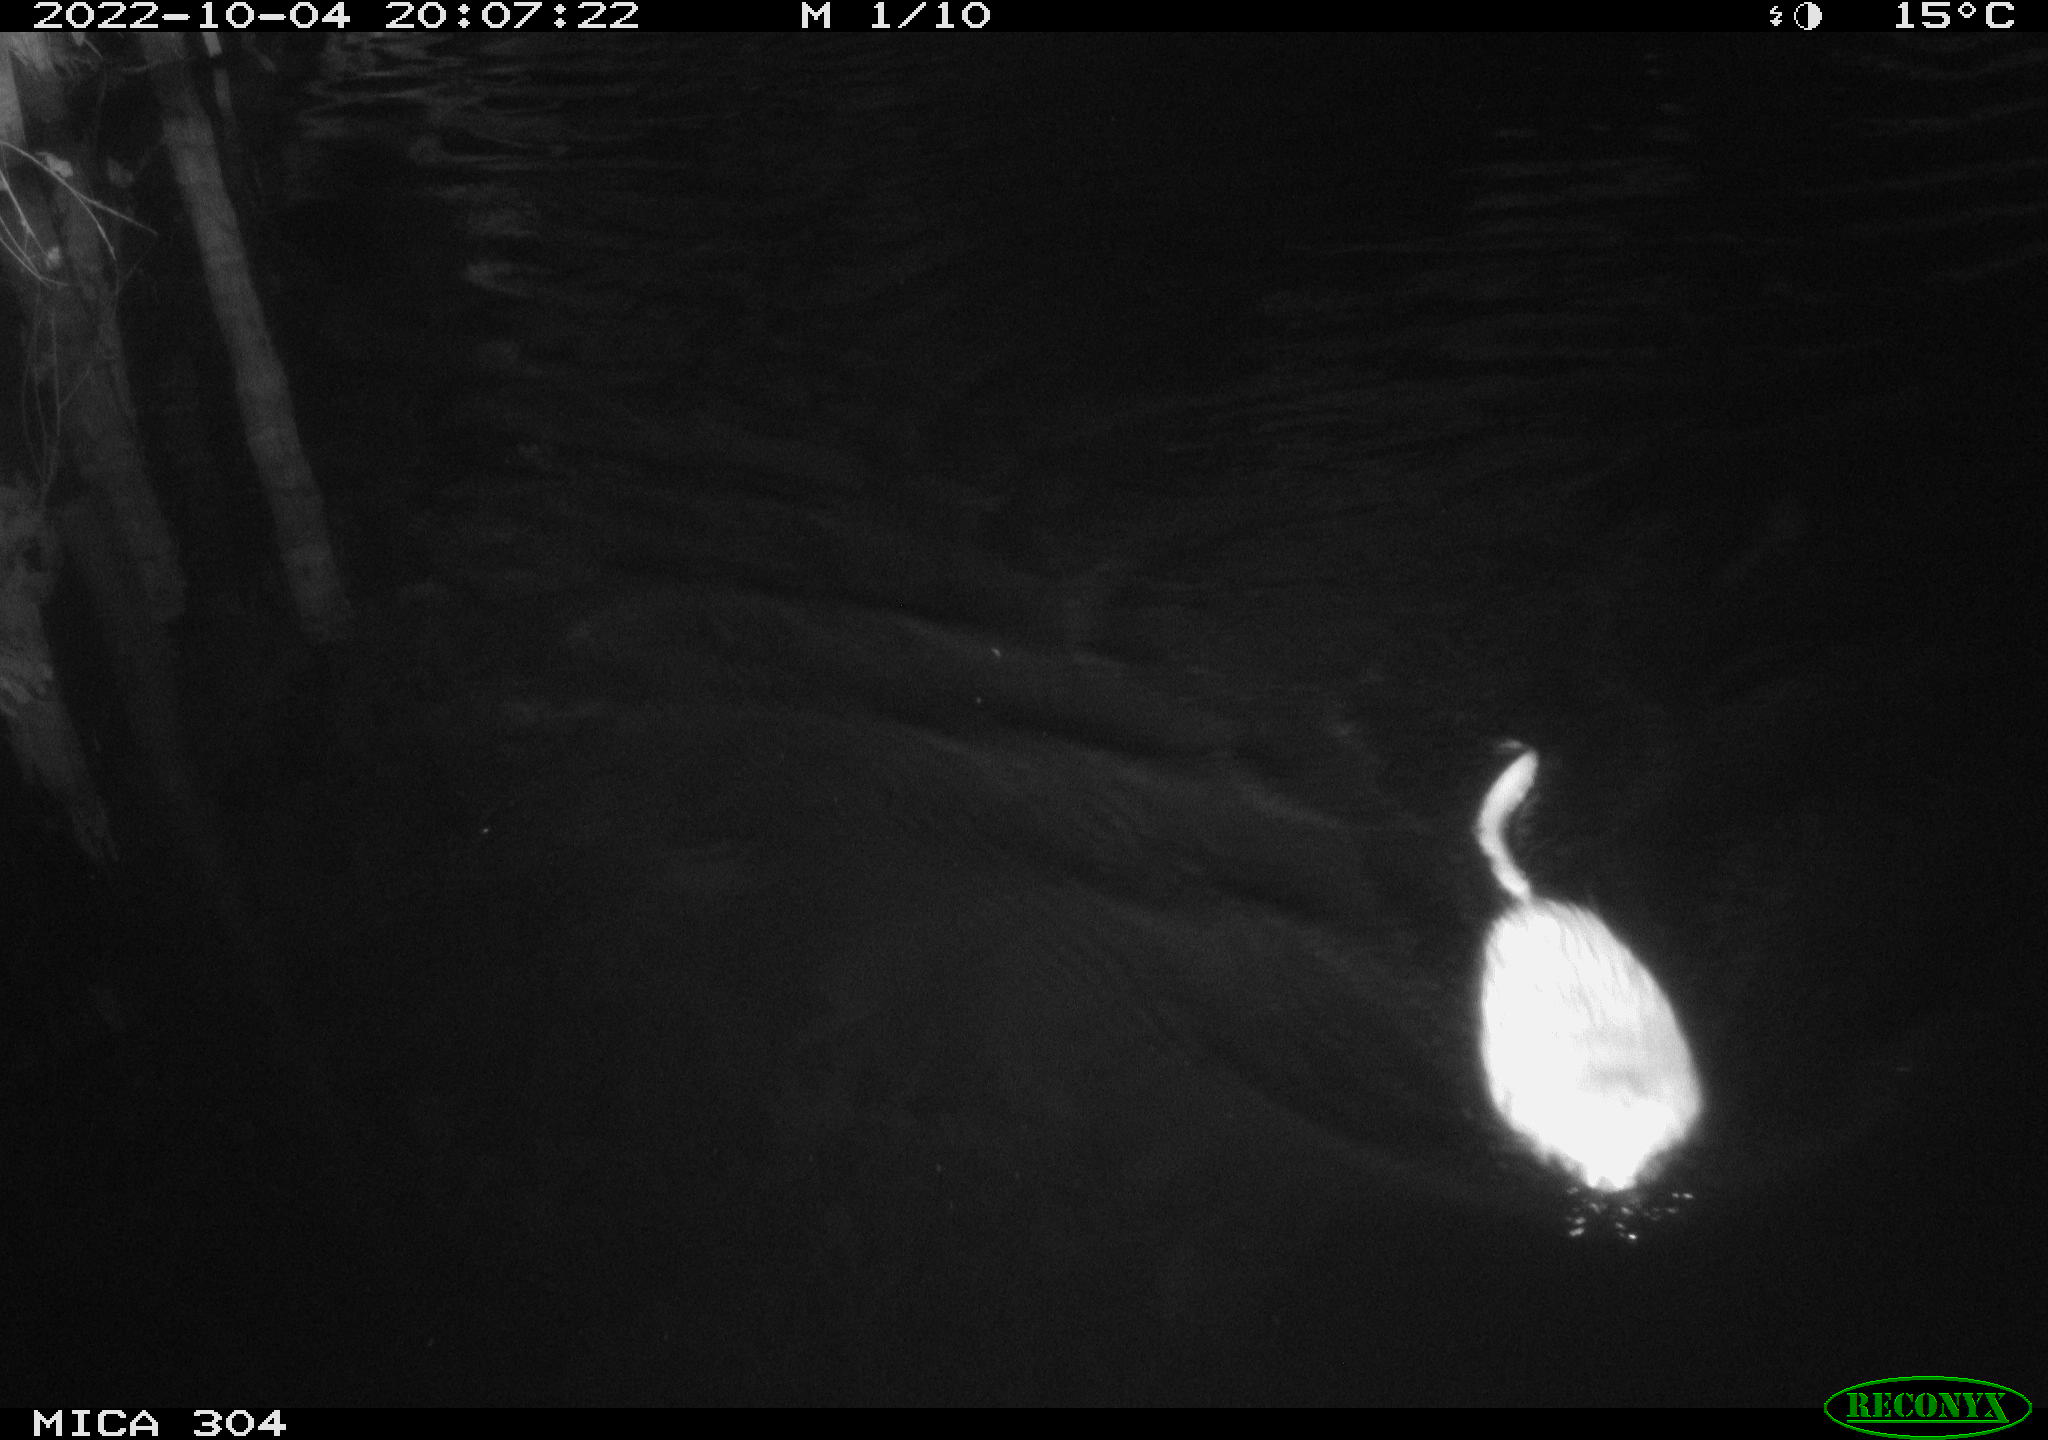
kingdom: Animalia
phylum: Chordata
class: Mammalia
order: Rodentia
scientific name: Rodentia
